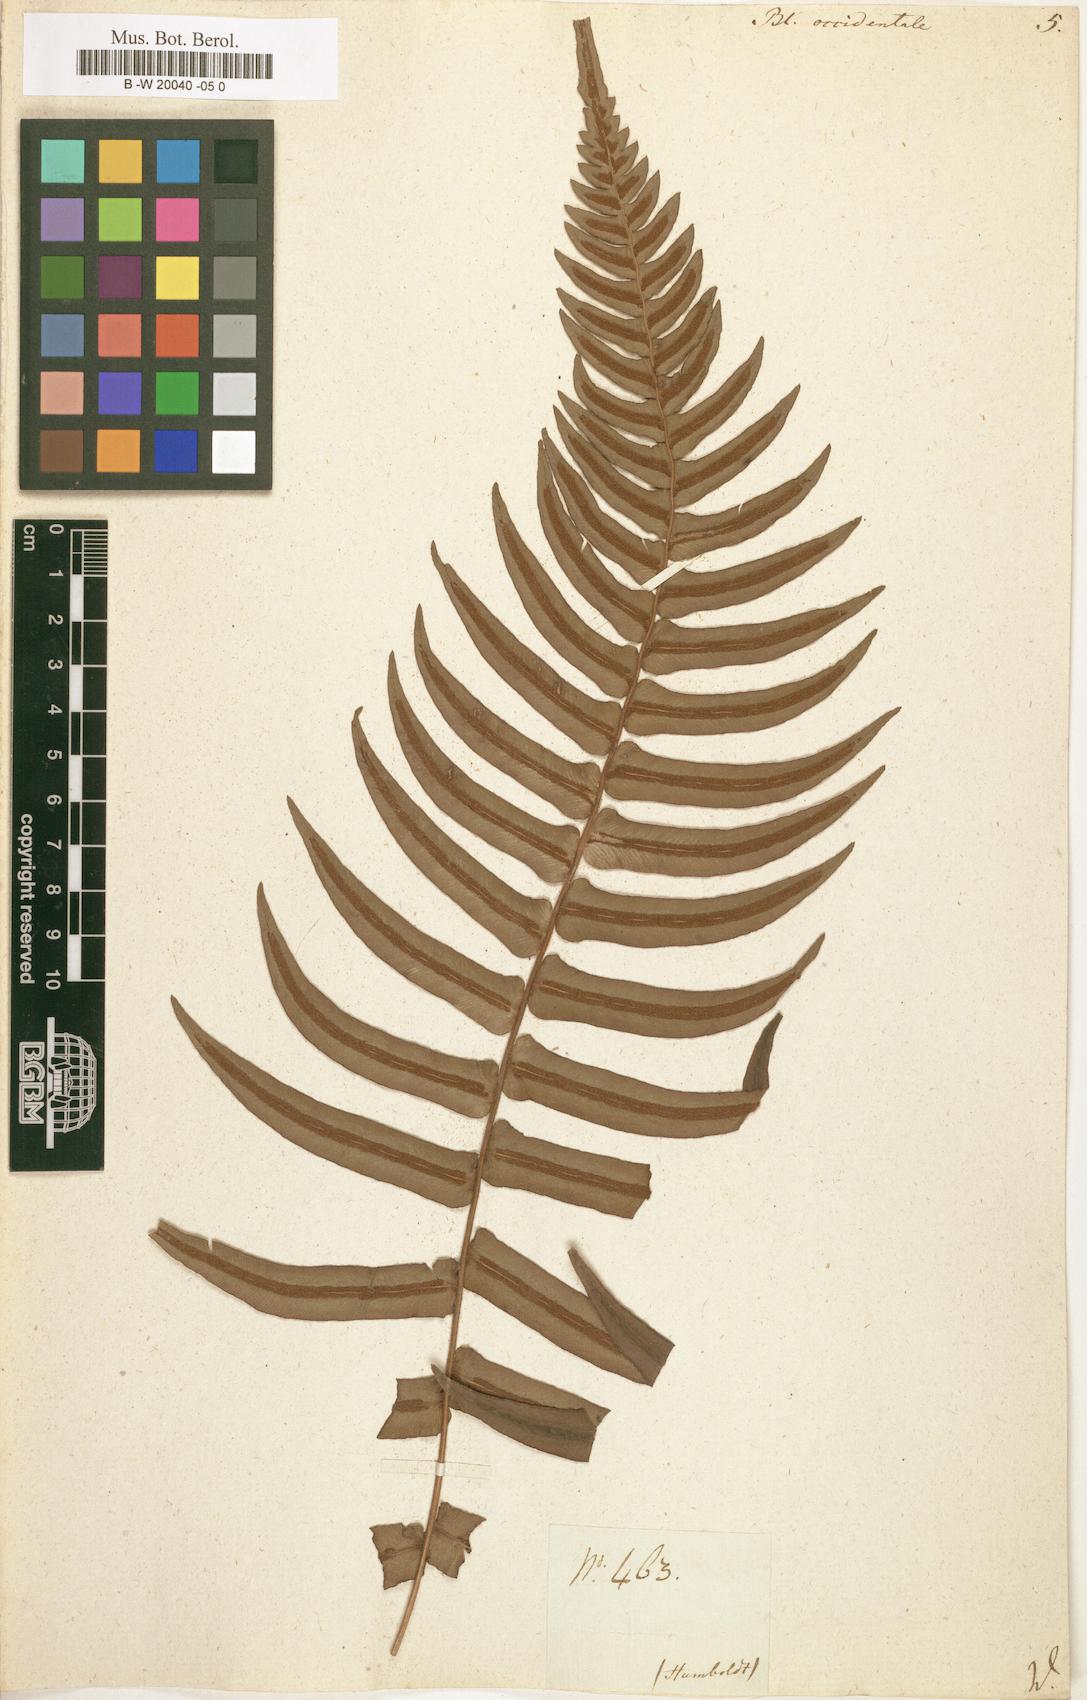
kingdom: Plantae
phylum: Tracheophyta
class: Polypodiopsida
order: Polypodiales
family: Blechnaceae
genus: Blechnum
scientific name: Blechnum occidentale
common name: Hammock fern
